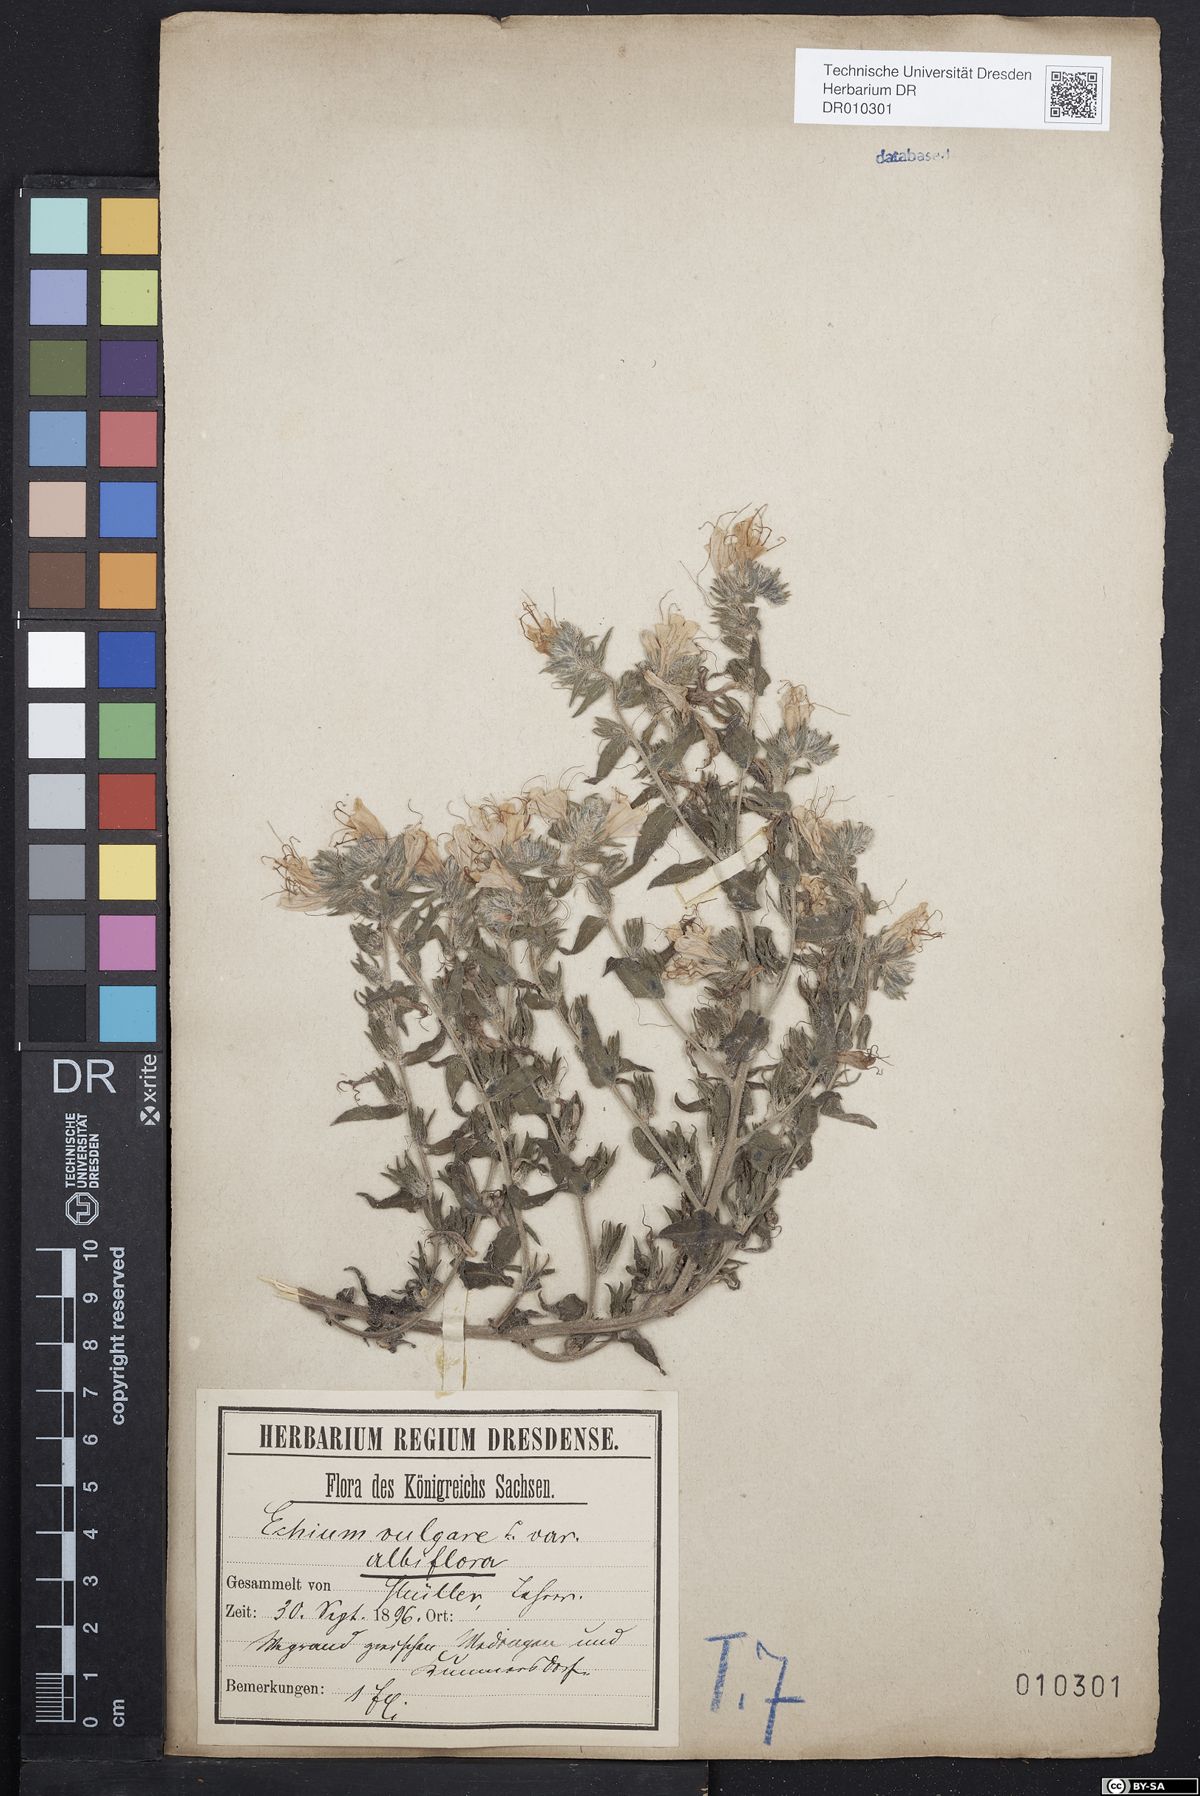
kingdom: Plantae
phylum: Tracheophyta
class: Magnoliopsida
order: Boraginales
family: Boraginaceae
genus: Echium
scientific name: Echium vulgare
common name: Common viper's bugloss
